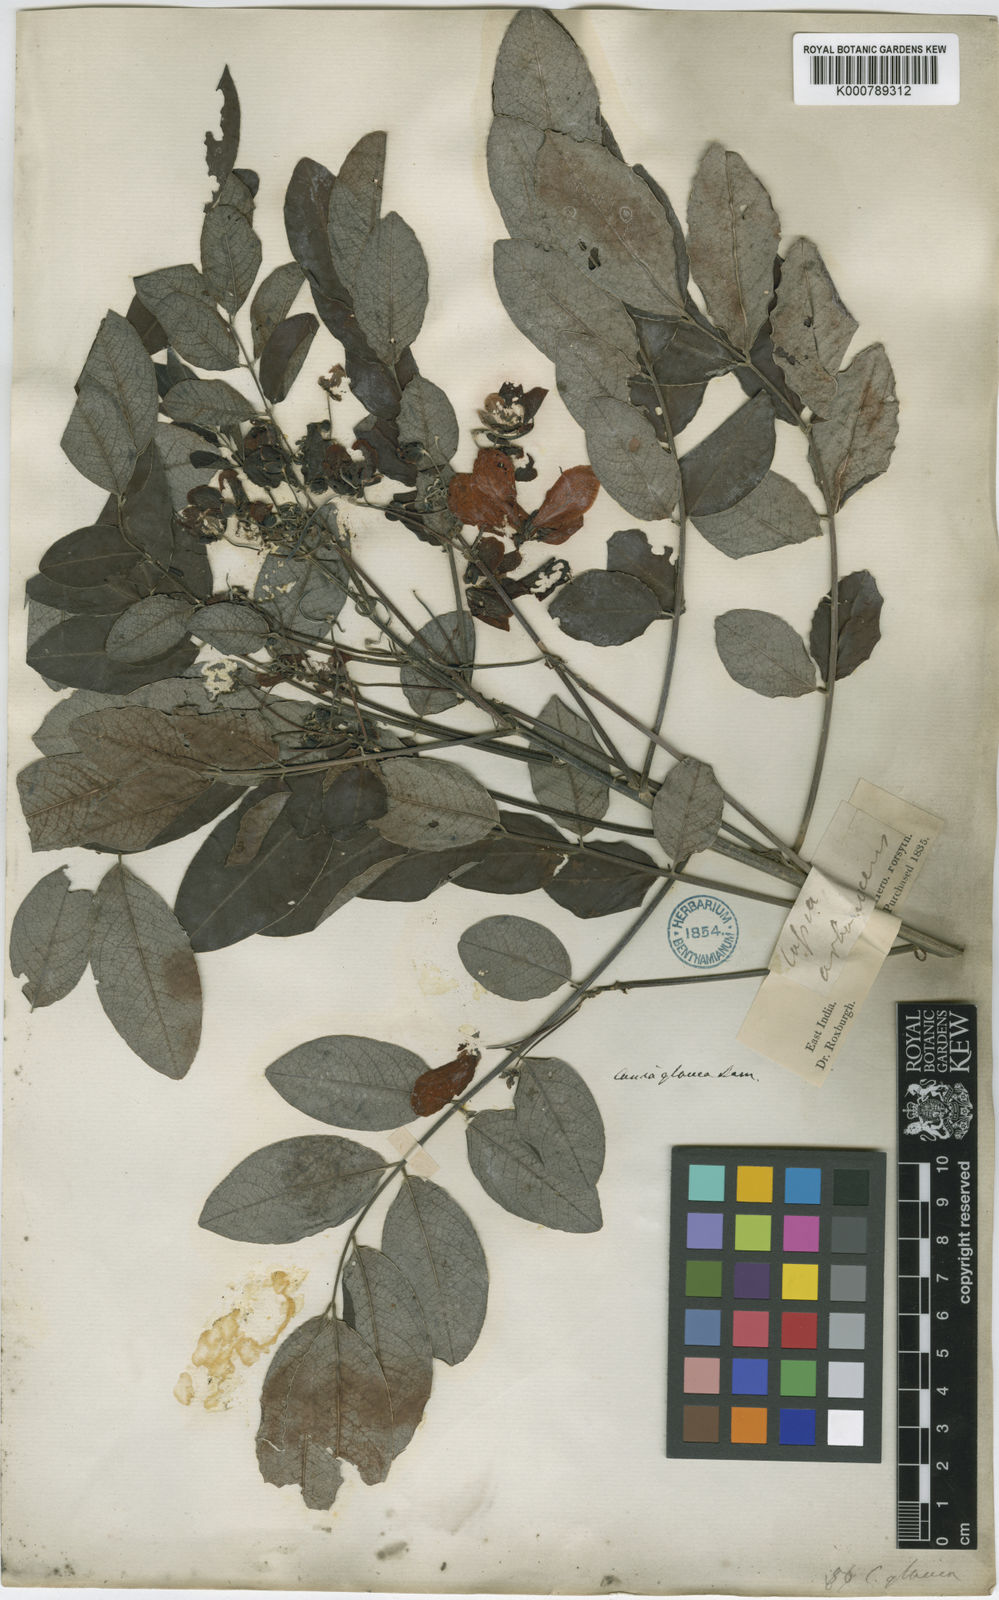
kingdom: Plantae
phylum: Tracheophyta
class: Magnoliopsida
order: Fabales
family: Fabaceae
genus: Senna
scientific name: Senna surattensis
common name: Glossy shower
